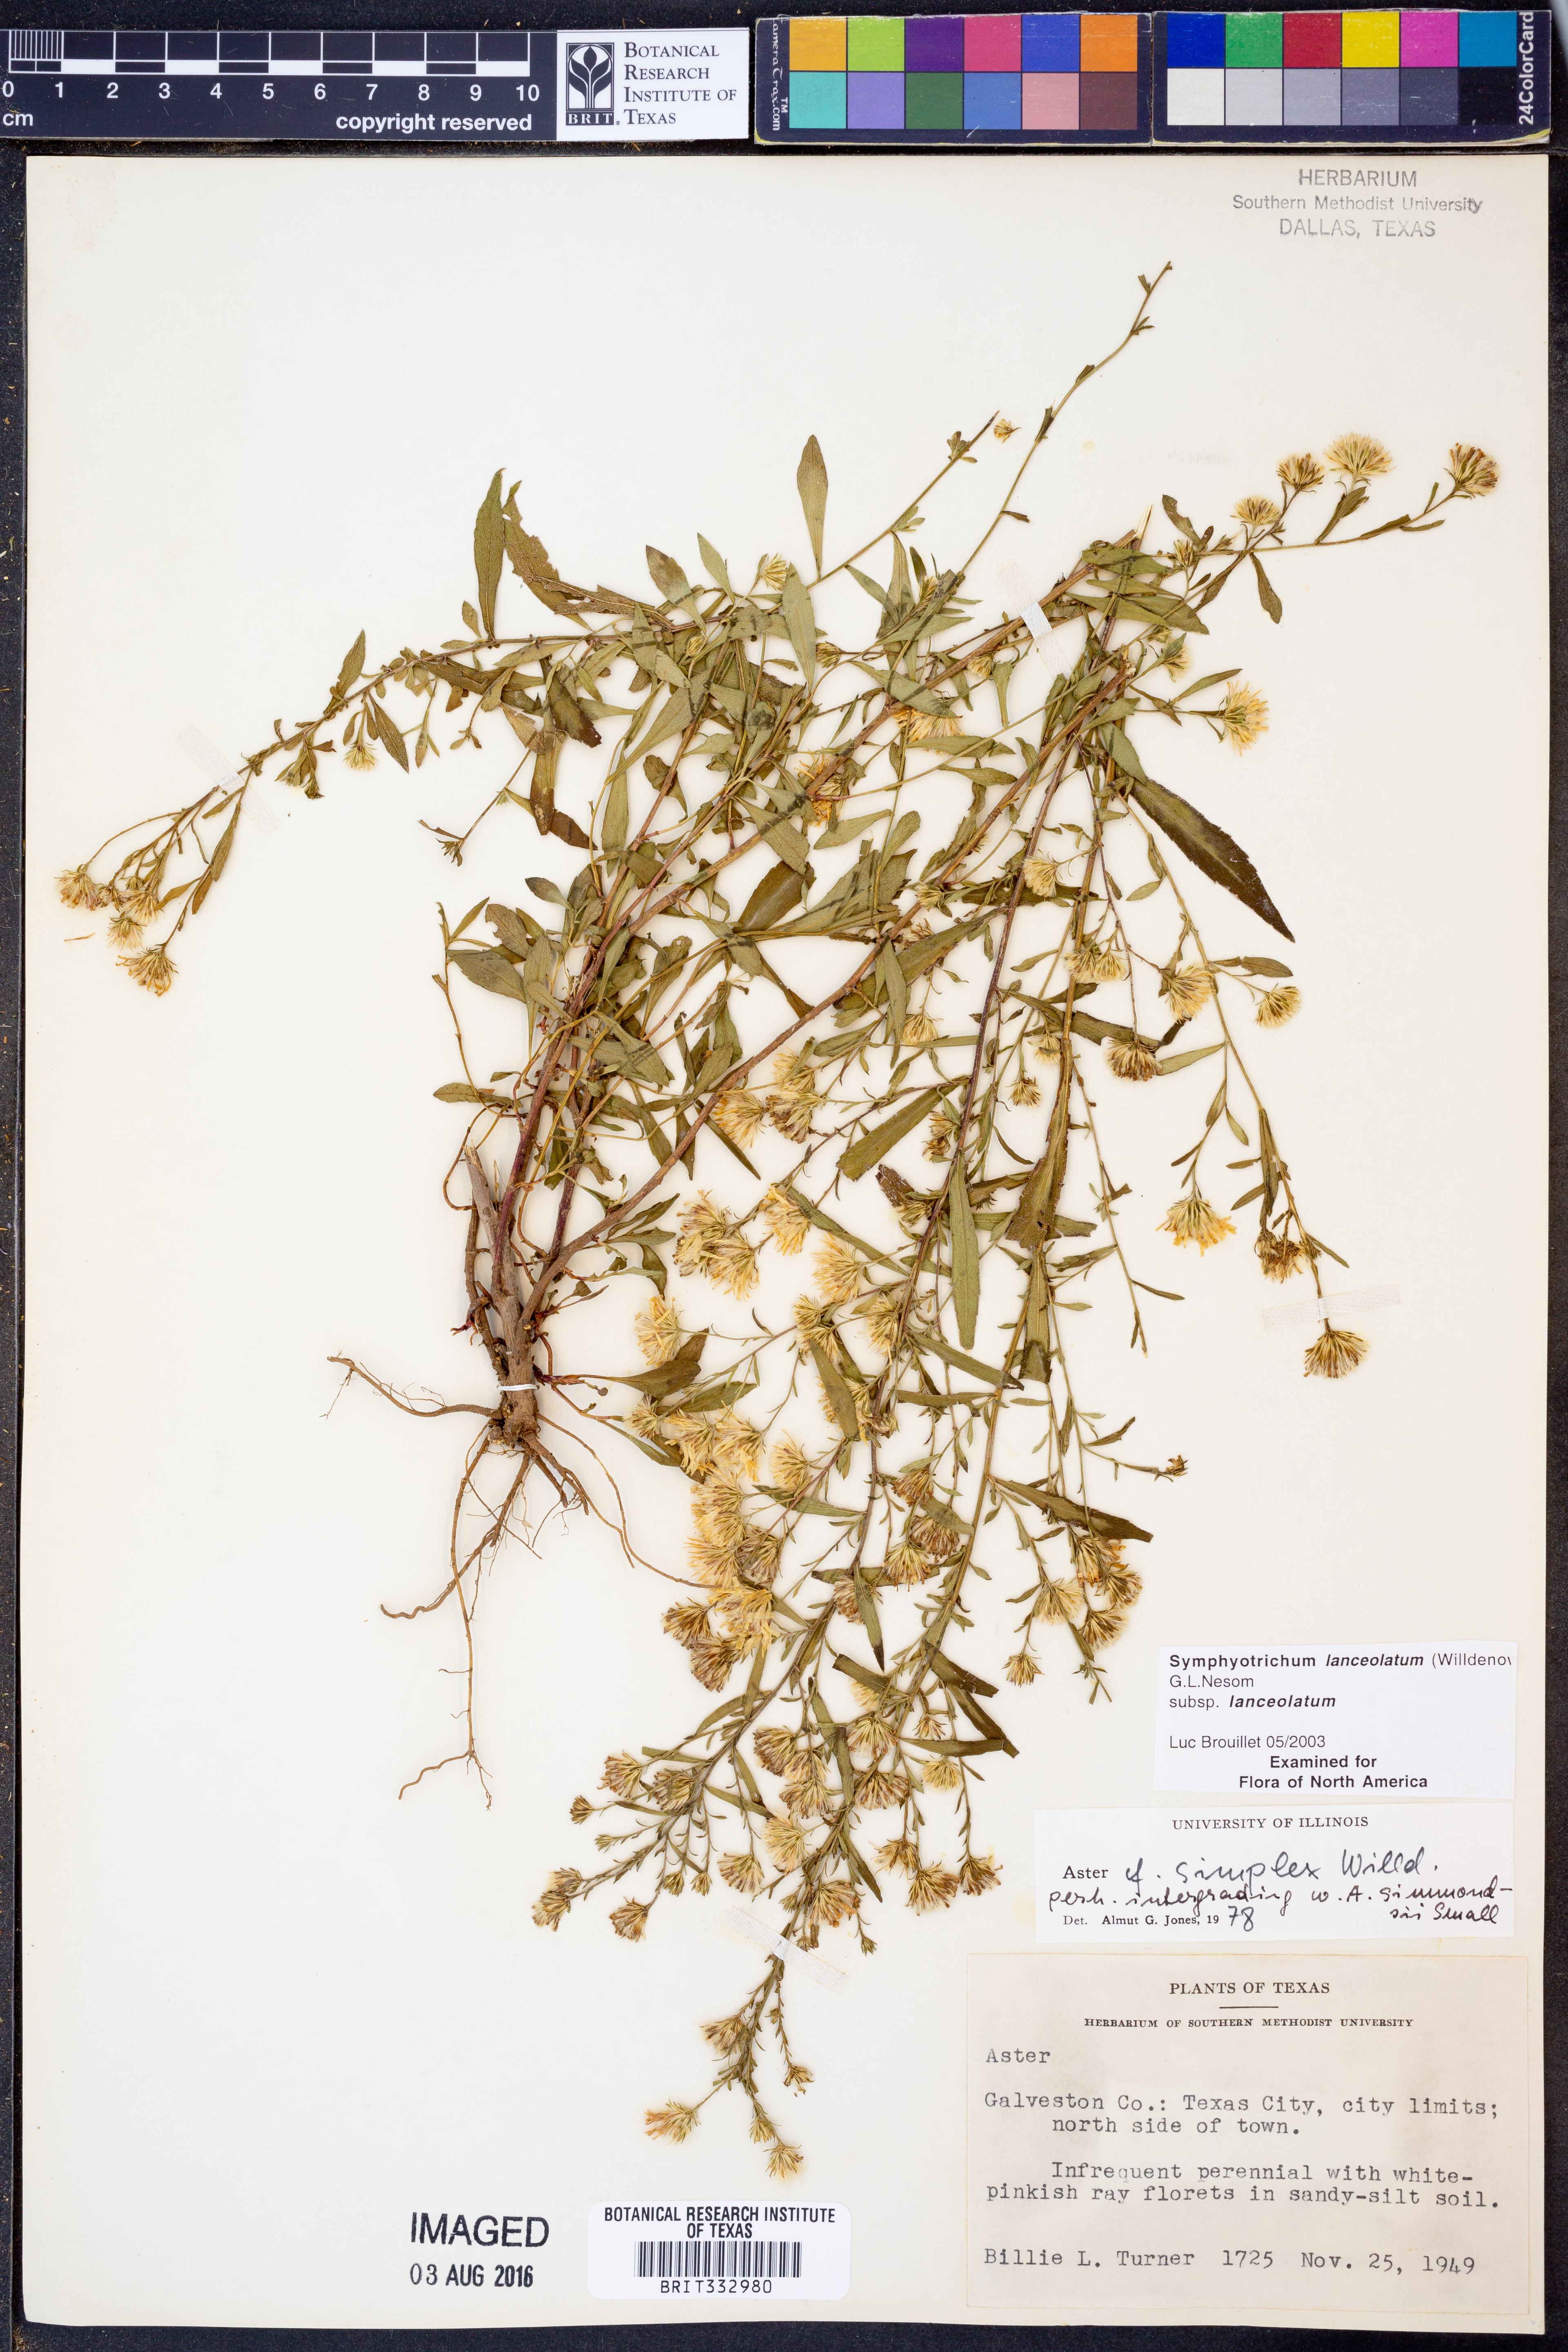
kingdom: Plantae
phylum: Tracheophyta
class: Magnoliopsida
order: Asterales
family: Asteraceae
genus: Symphyotrichum
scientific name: Symphyotrichum lanceolatum
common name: Panicled aster
